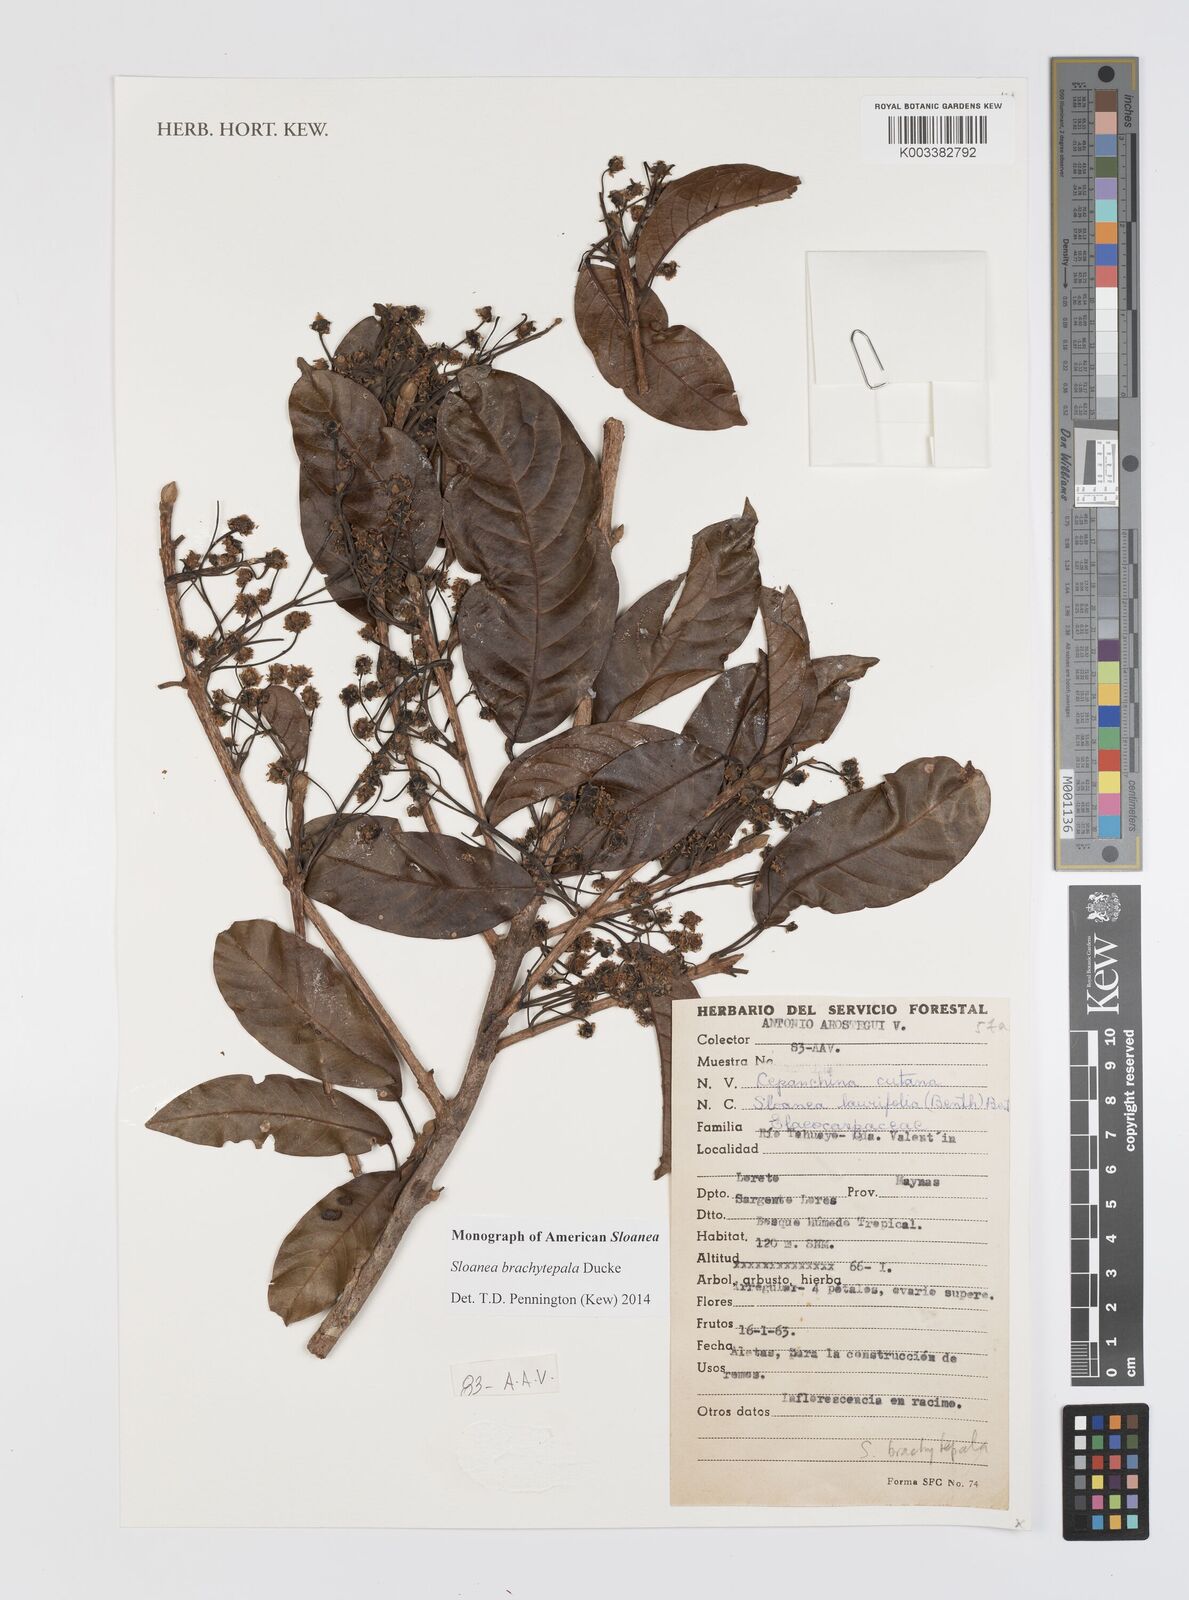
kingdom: Plantae
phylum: Tracheophyta
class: Magnoliopsida
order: Oxalidales
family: Elaeocarpaceae
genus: Sloanea
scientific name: Sloanea brachytepala
